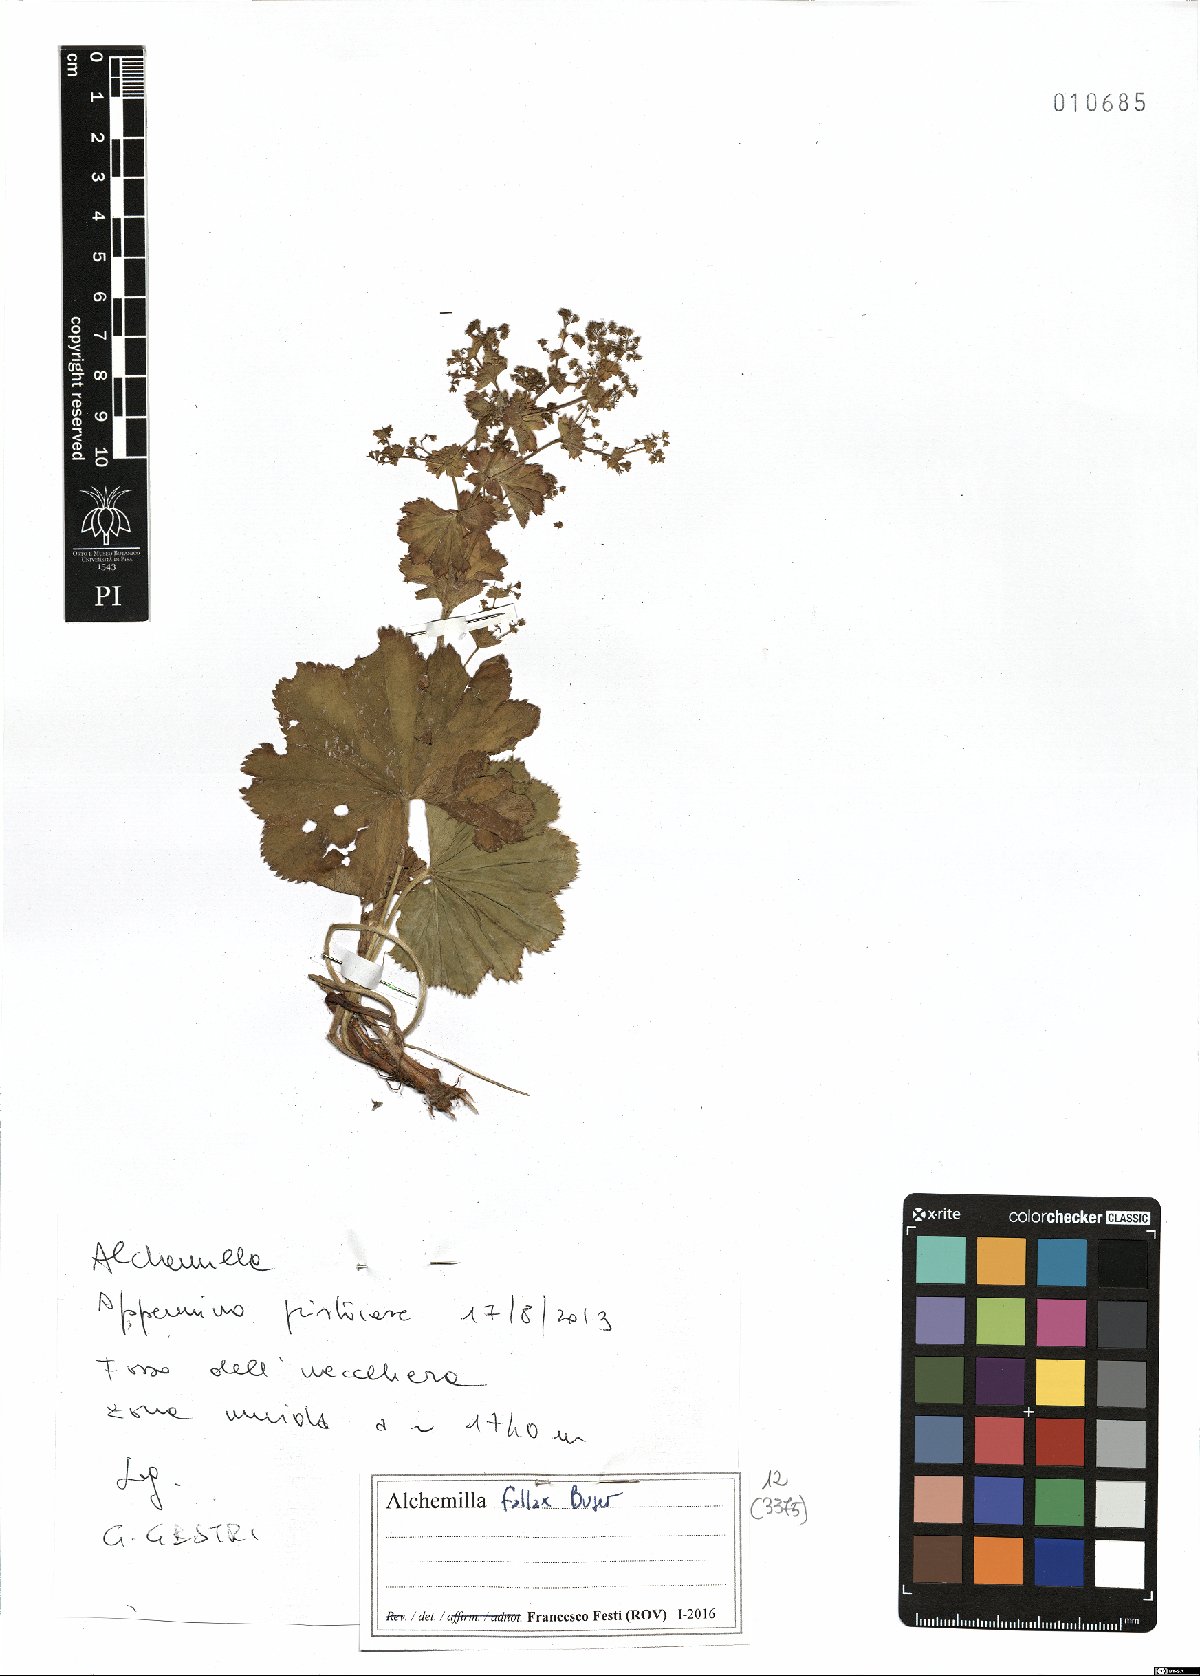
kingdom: Plantae
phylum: Tracheophyta
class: Magnoliopsida
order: Rosales
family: Rosaceae
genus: Alchemilla
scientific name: Alchemilla fallax
